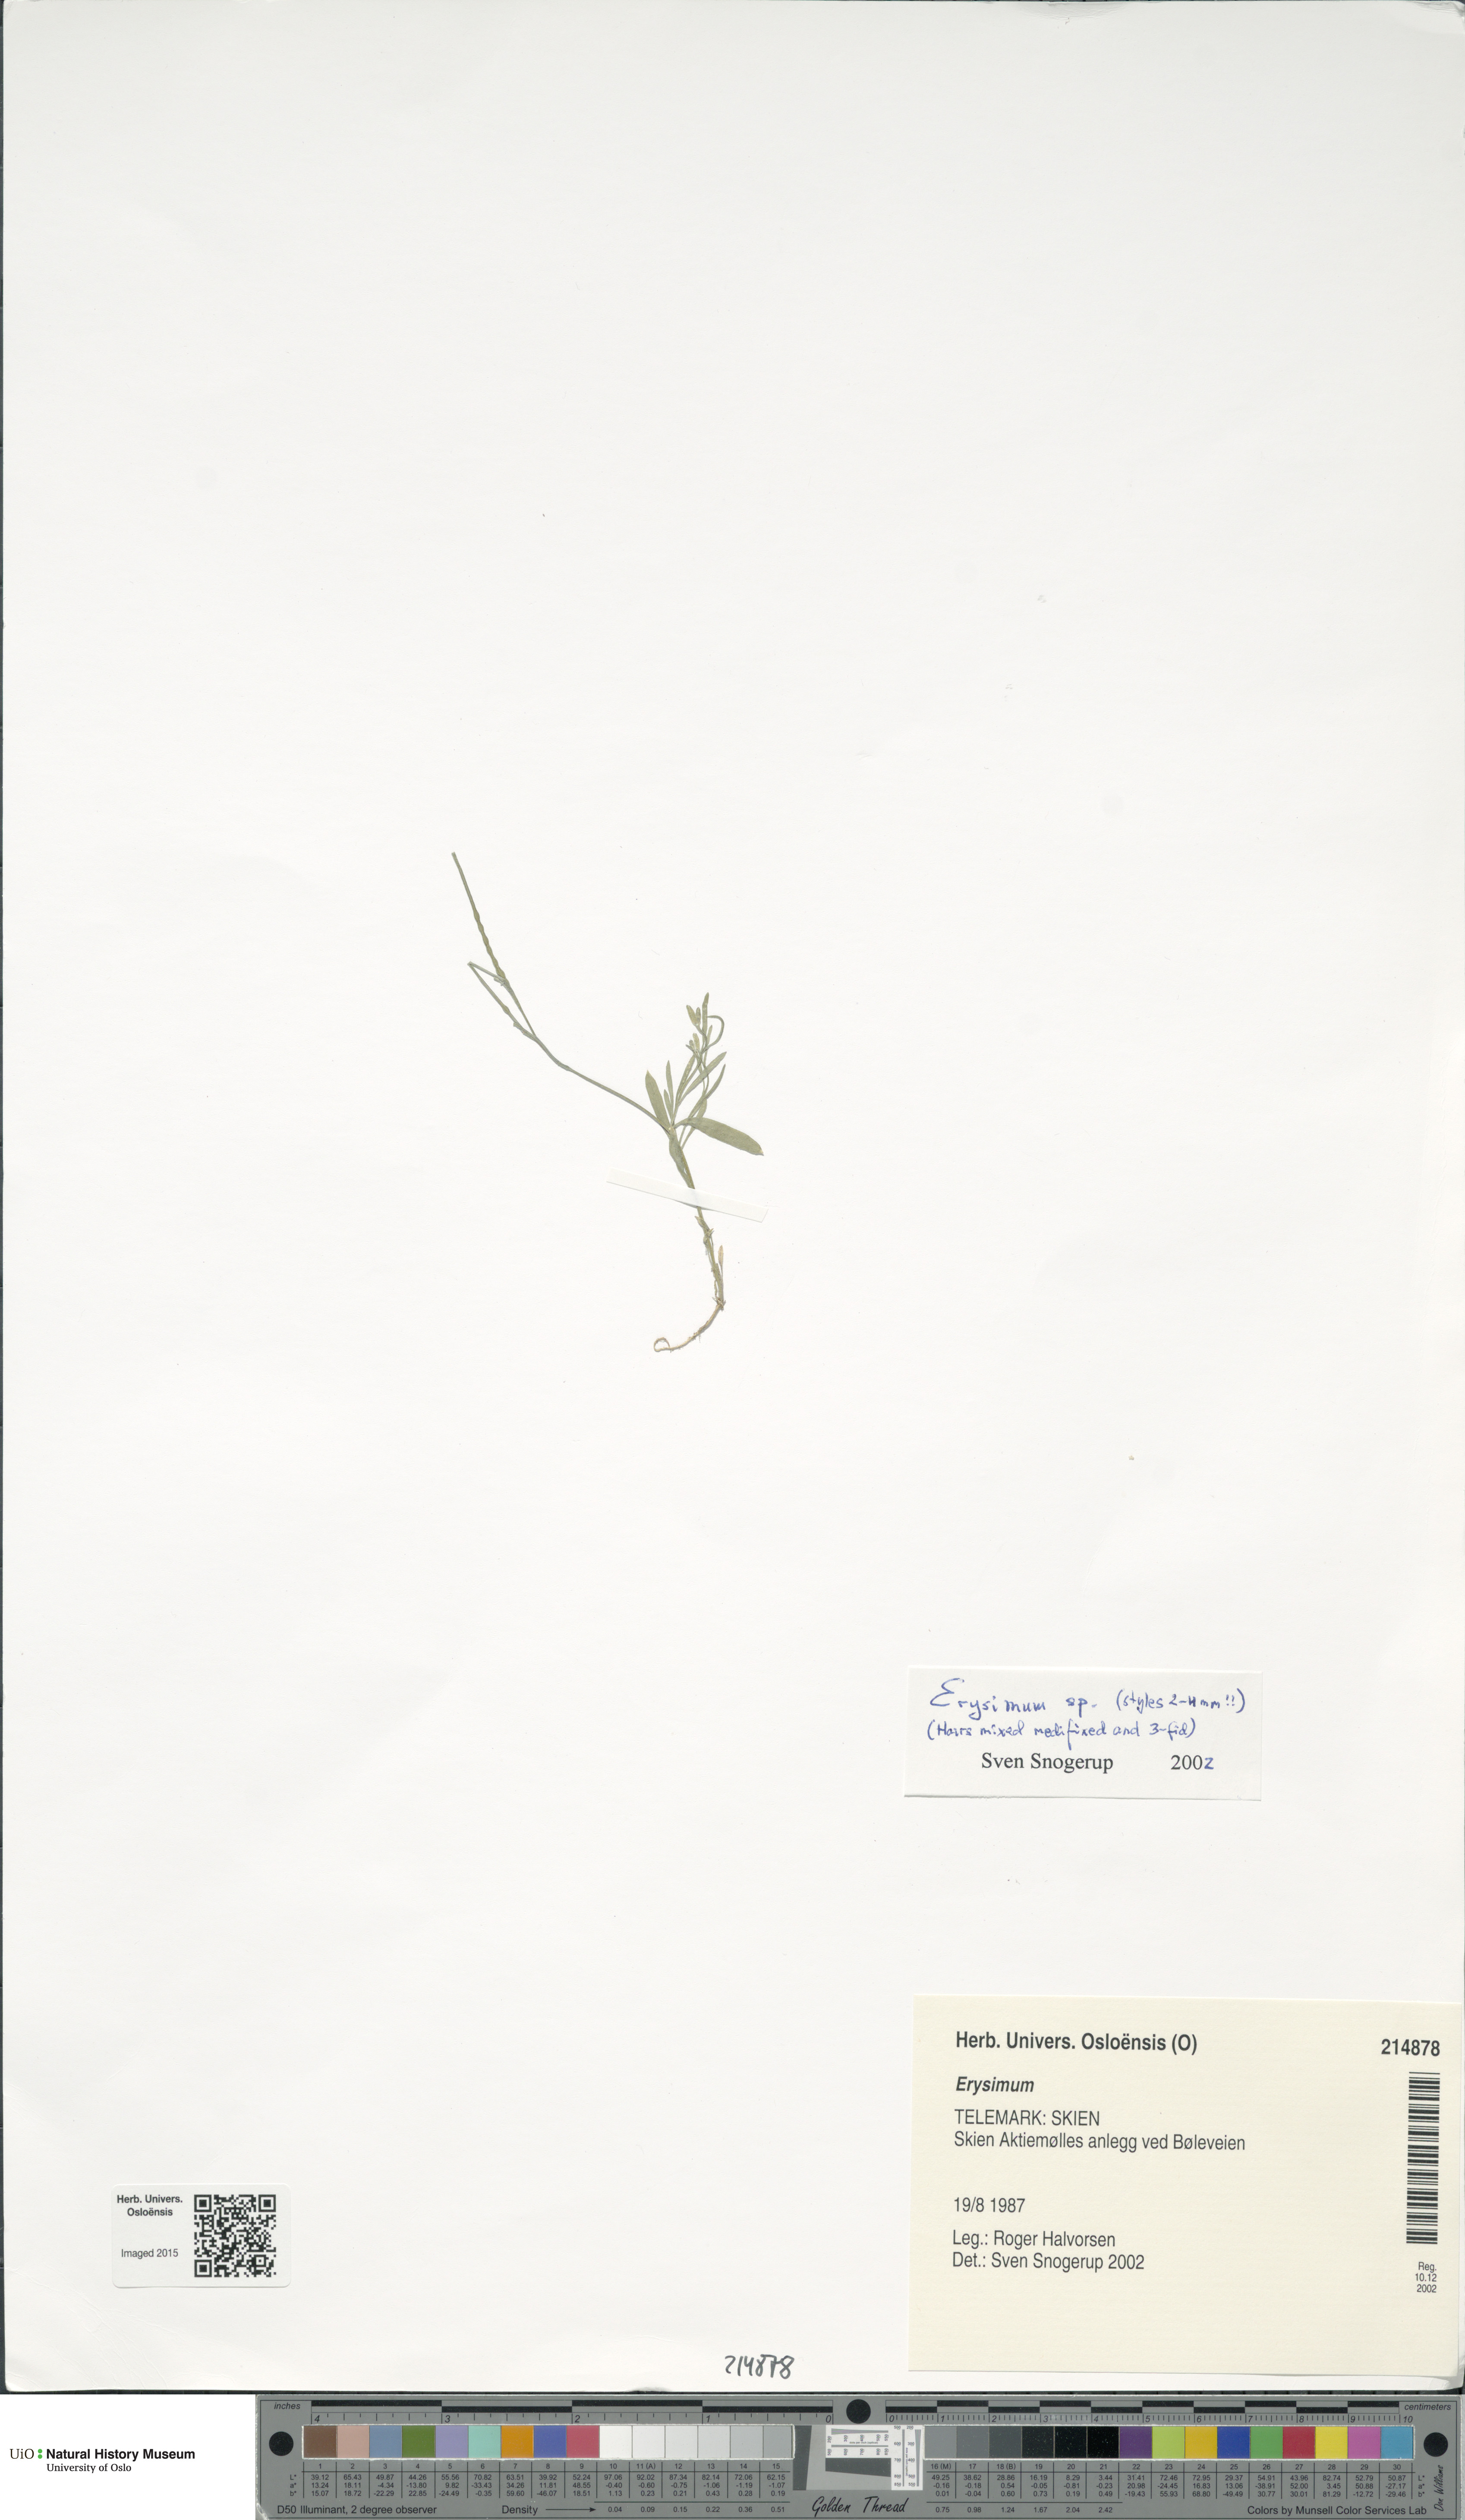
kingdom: Plantae
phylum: Tracheophyta
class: Magnoliopsida
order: Brassicales
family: Brassicaceae
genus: Erysimum
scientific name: Erysimum
